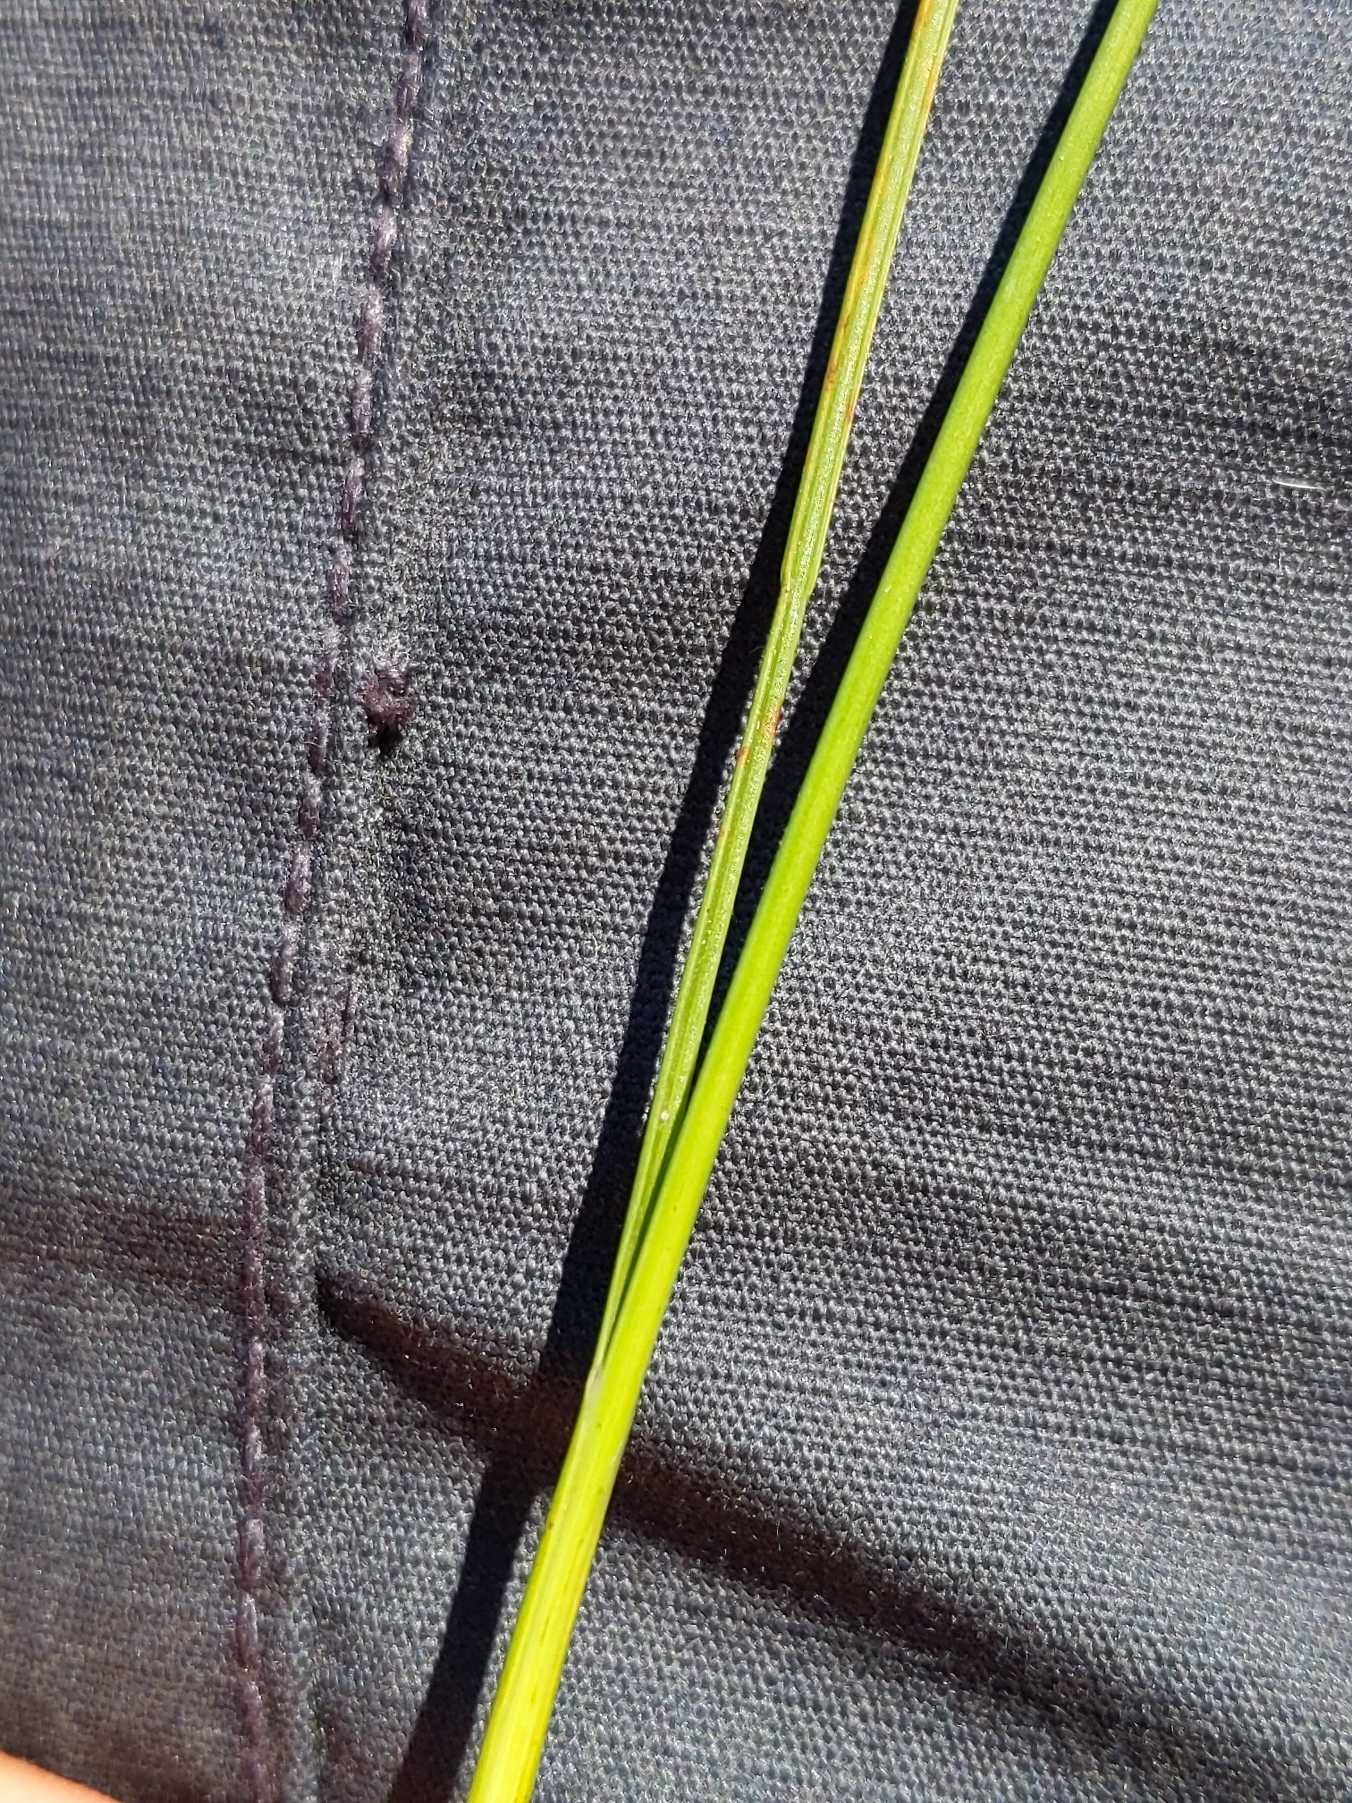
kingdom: Plantae
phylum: Tracheophyta
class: Liliopsida
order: Poales
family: Juncaceae
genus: Juncus
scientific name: Juncus compressus
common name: Fladstrået siv
